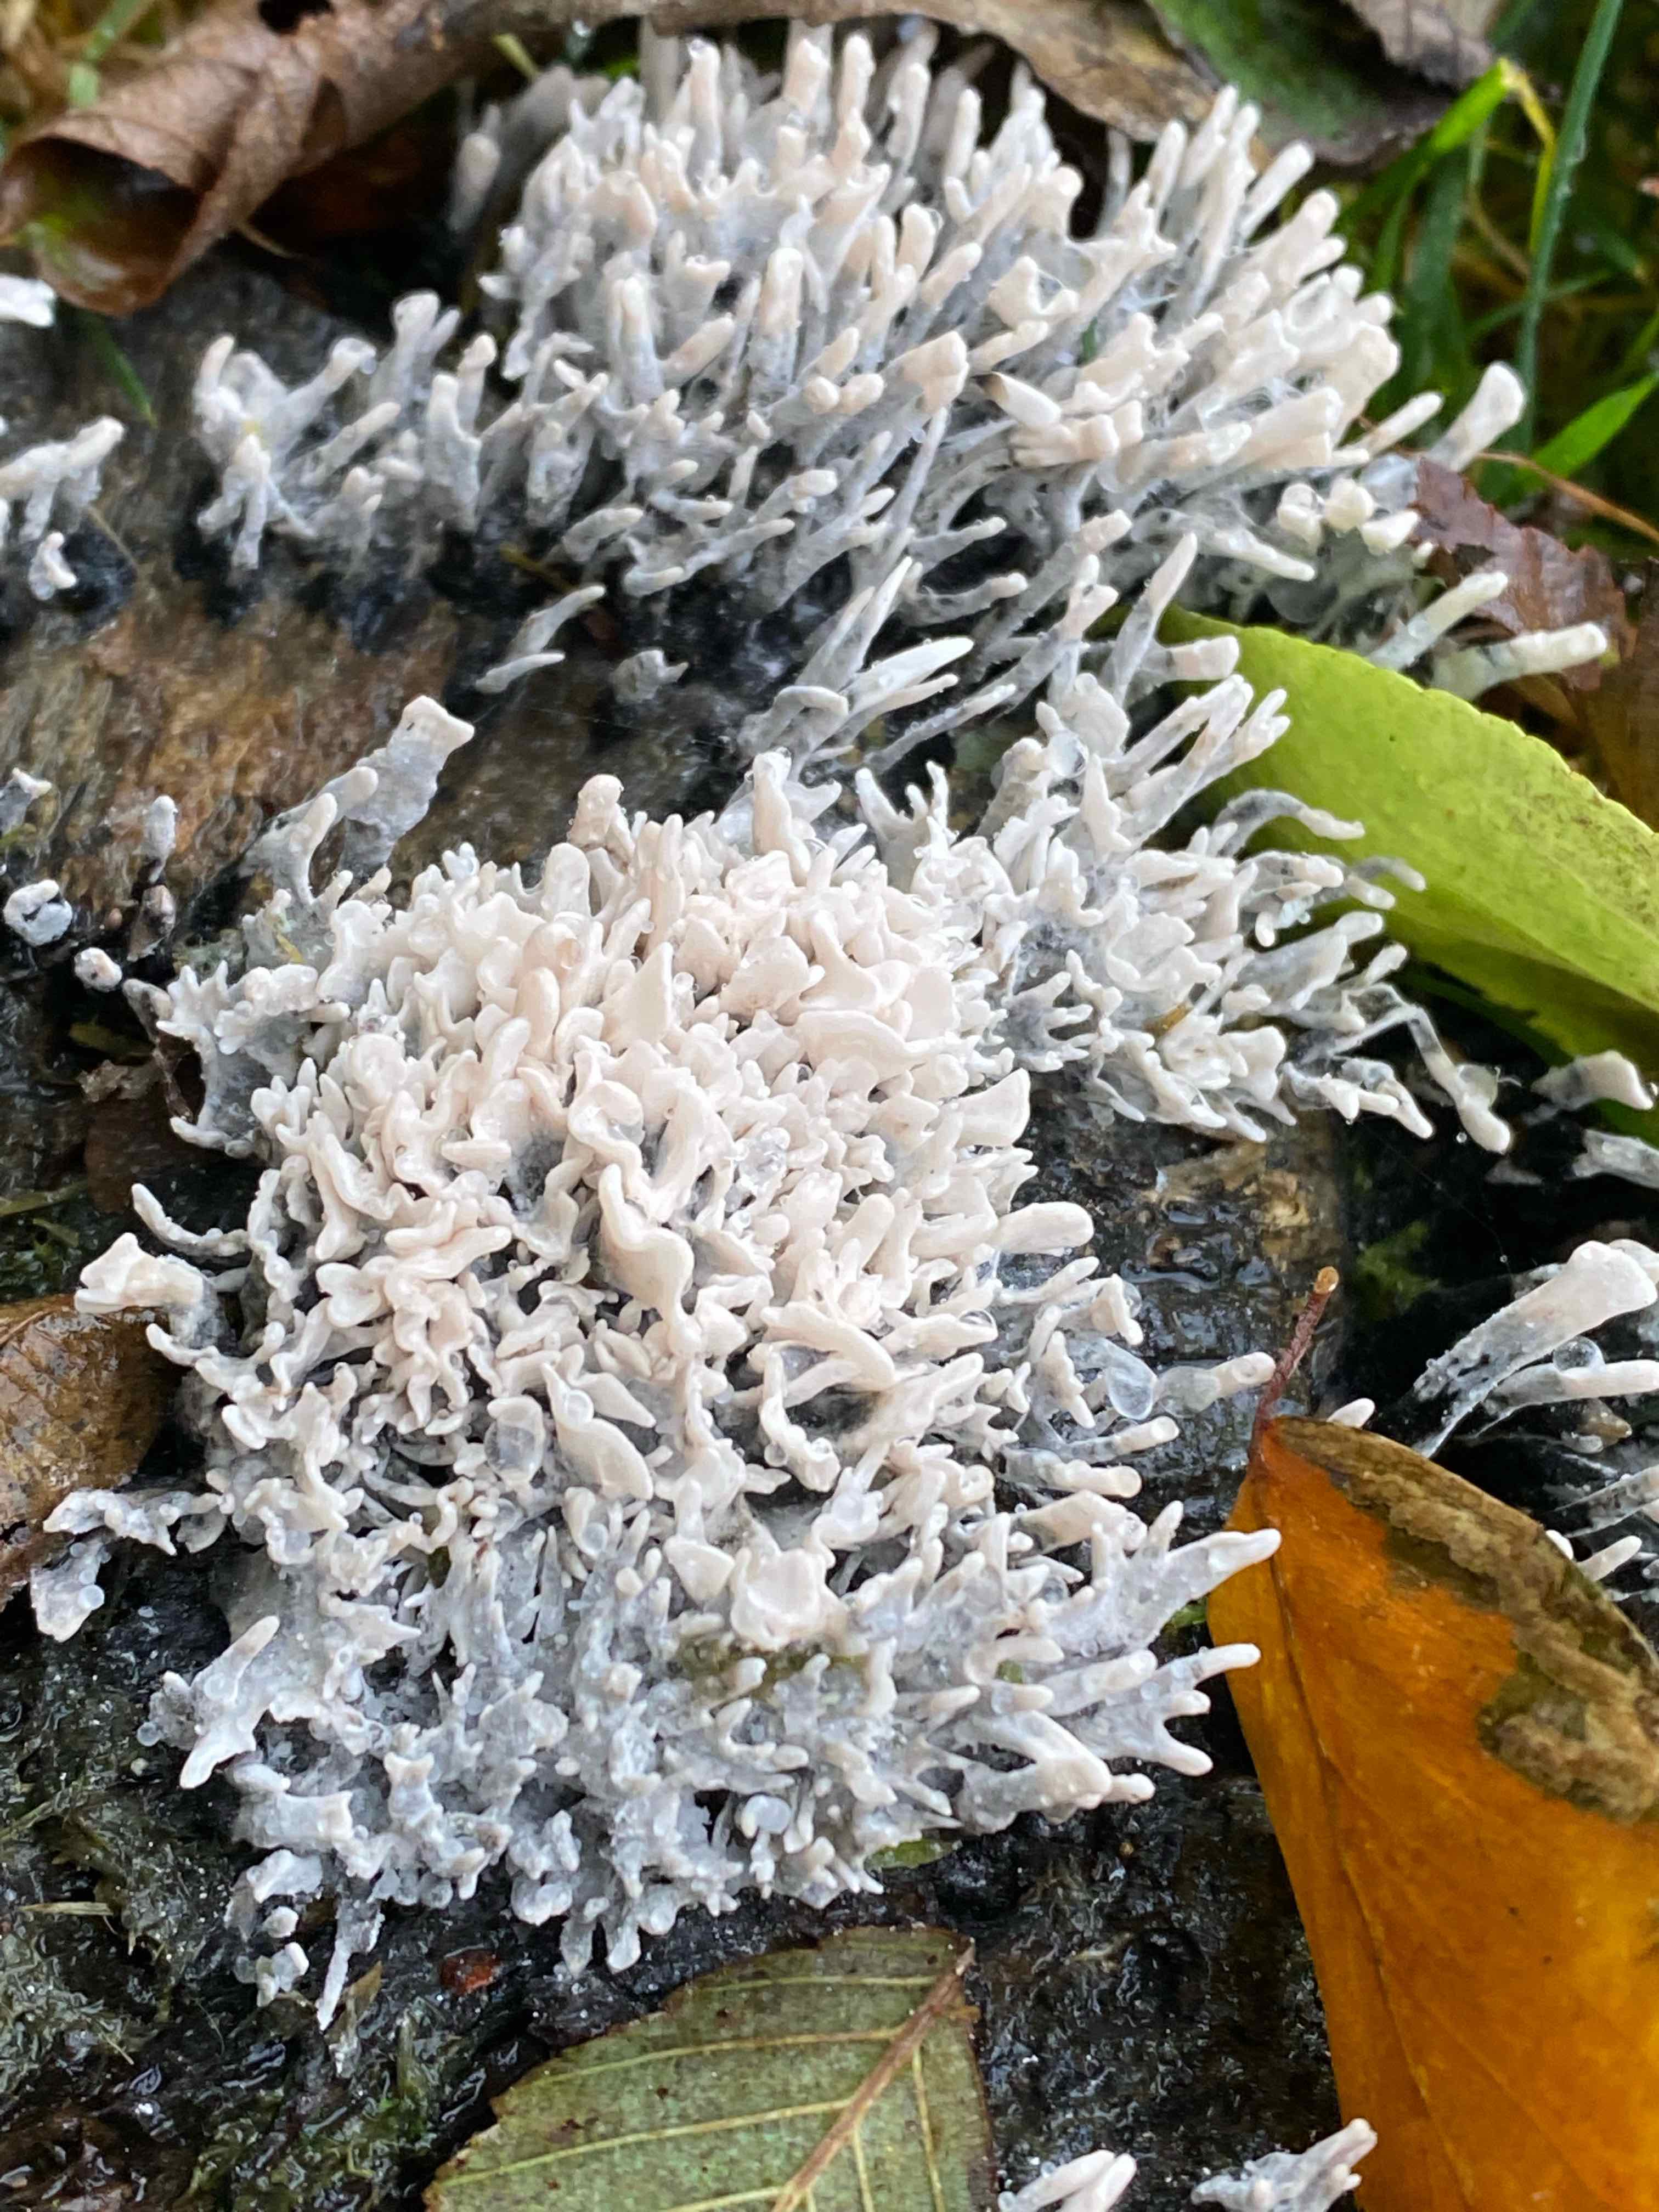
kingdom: Fungi
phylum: Ascomycota
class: Sordariomycetes
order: Xylariales
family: Xylariaceae
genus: Xylaria
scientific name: Xylaria hypoxylon
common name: grenet stødsvamp
